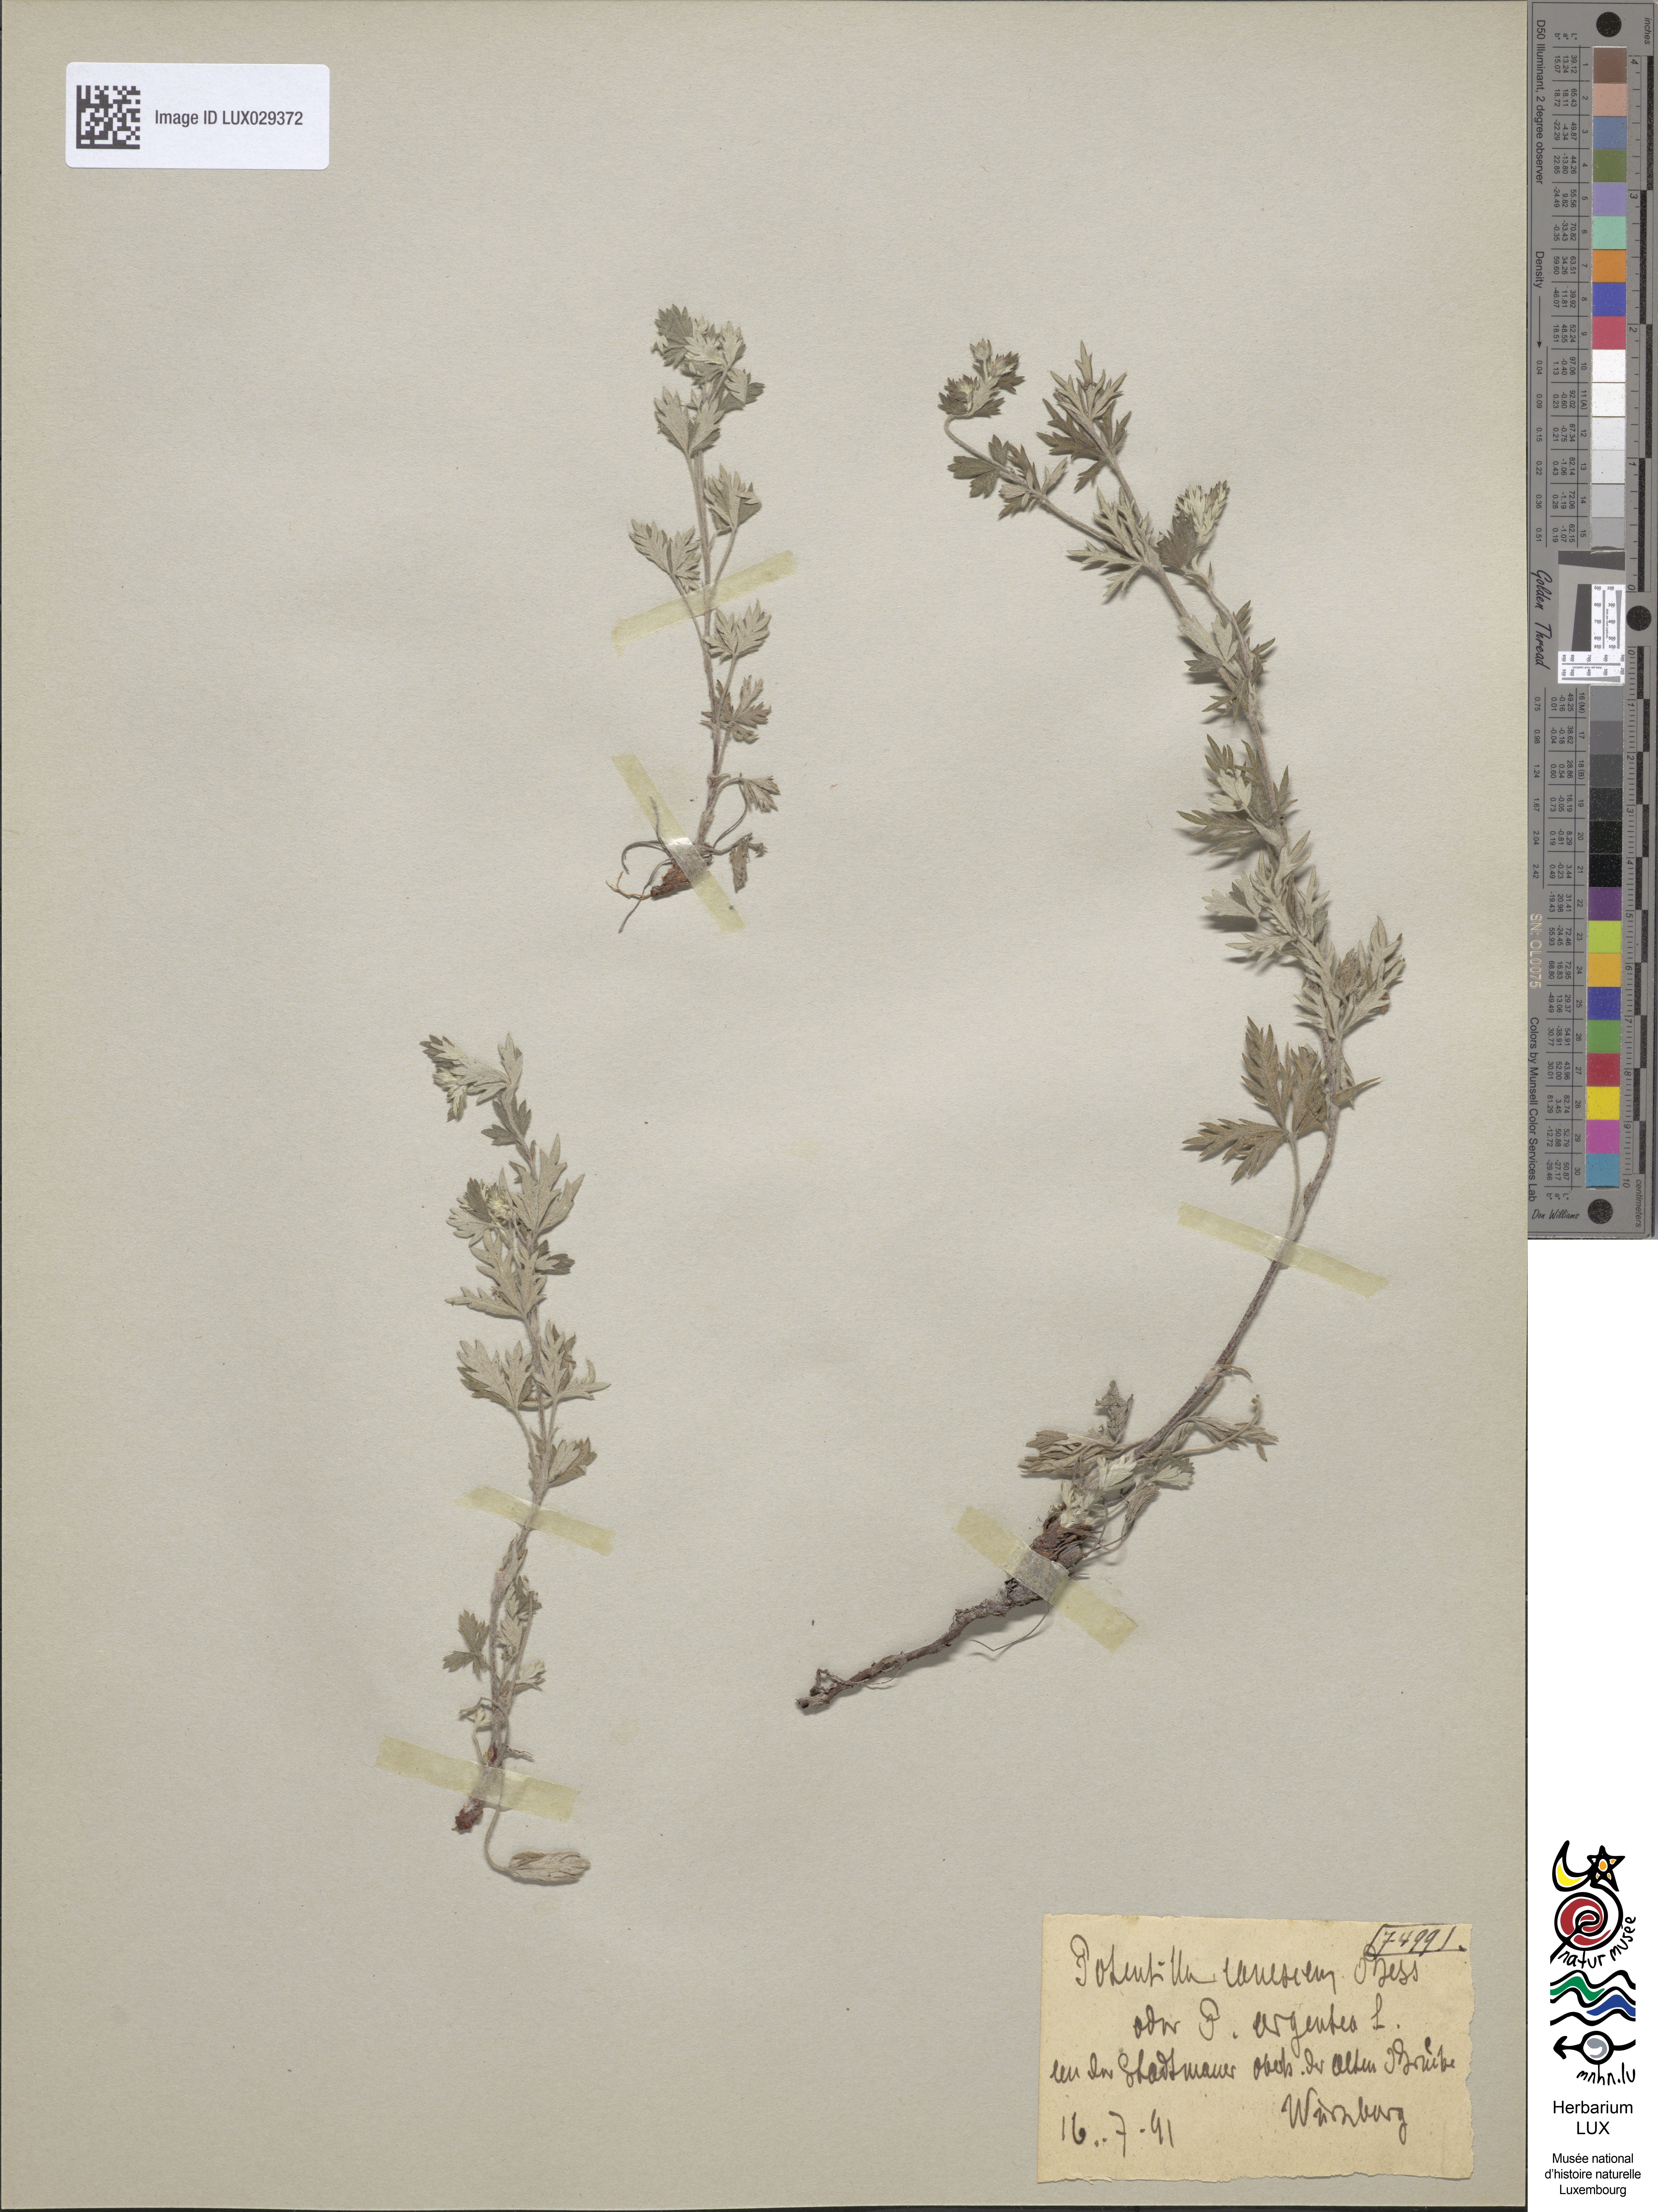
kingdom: Plantae
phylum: Tracheophyta
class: Magnoliopsida
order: Rosales
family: Rosaceae
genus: Potentilla
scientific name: Potentilla inclinata
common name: Grey cinquefoil
